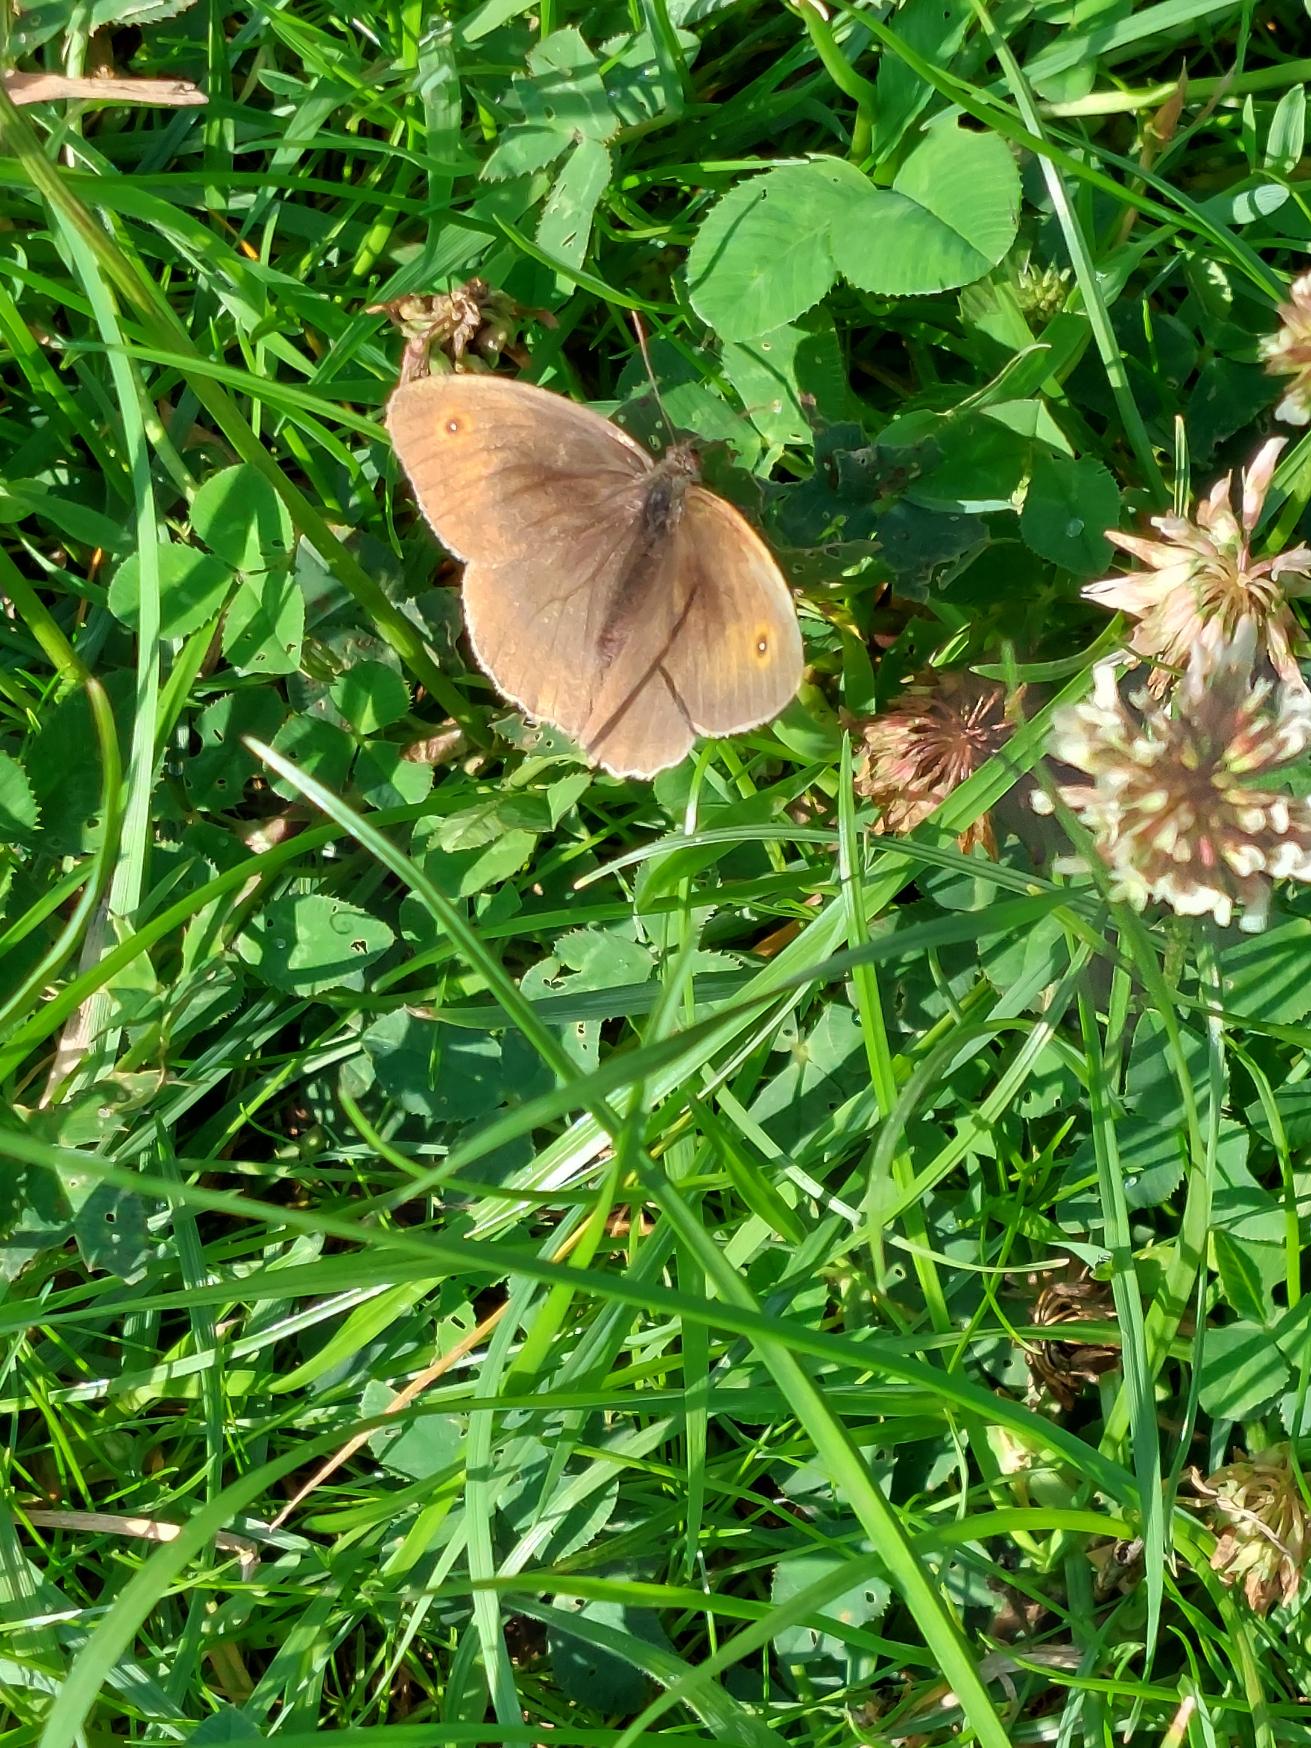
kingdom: Animalia
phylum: Arthropoda
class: Insecta
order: Lepidoptera
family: Nymphalidae
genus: Maniola
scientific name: Maniola jurtina
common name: Græsrandøje
